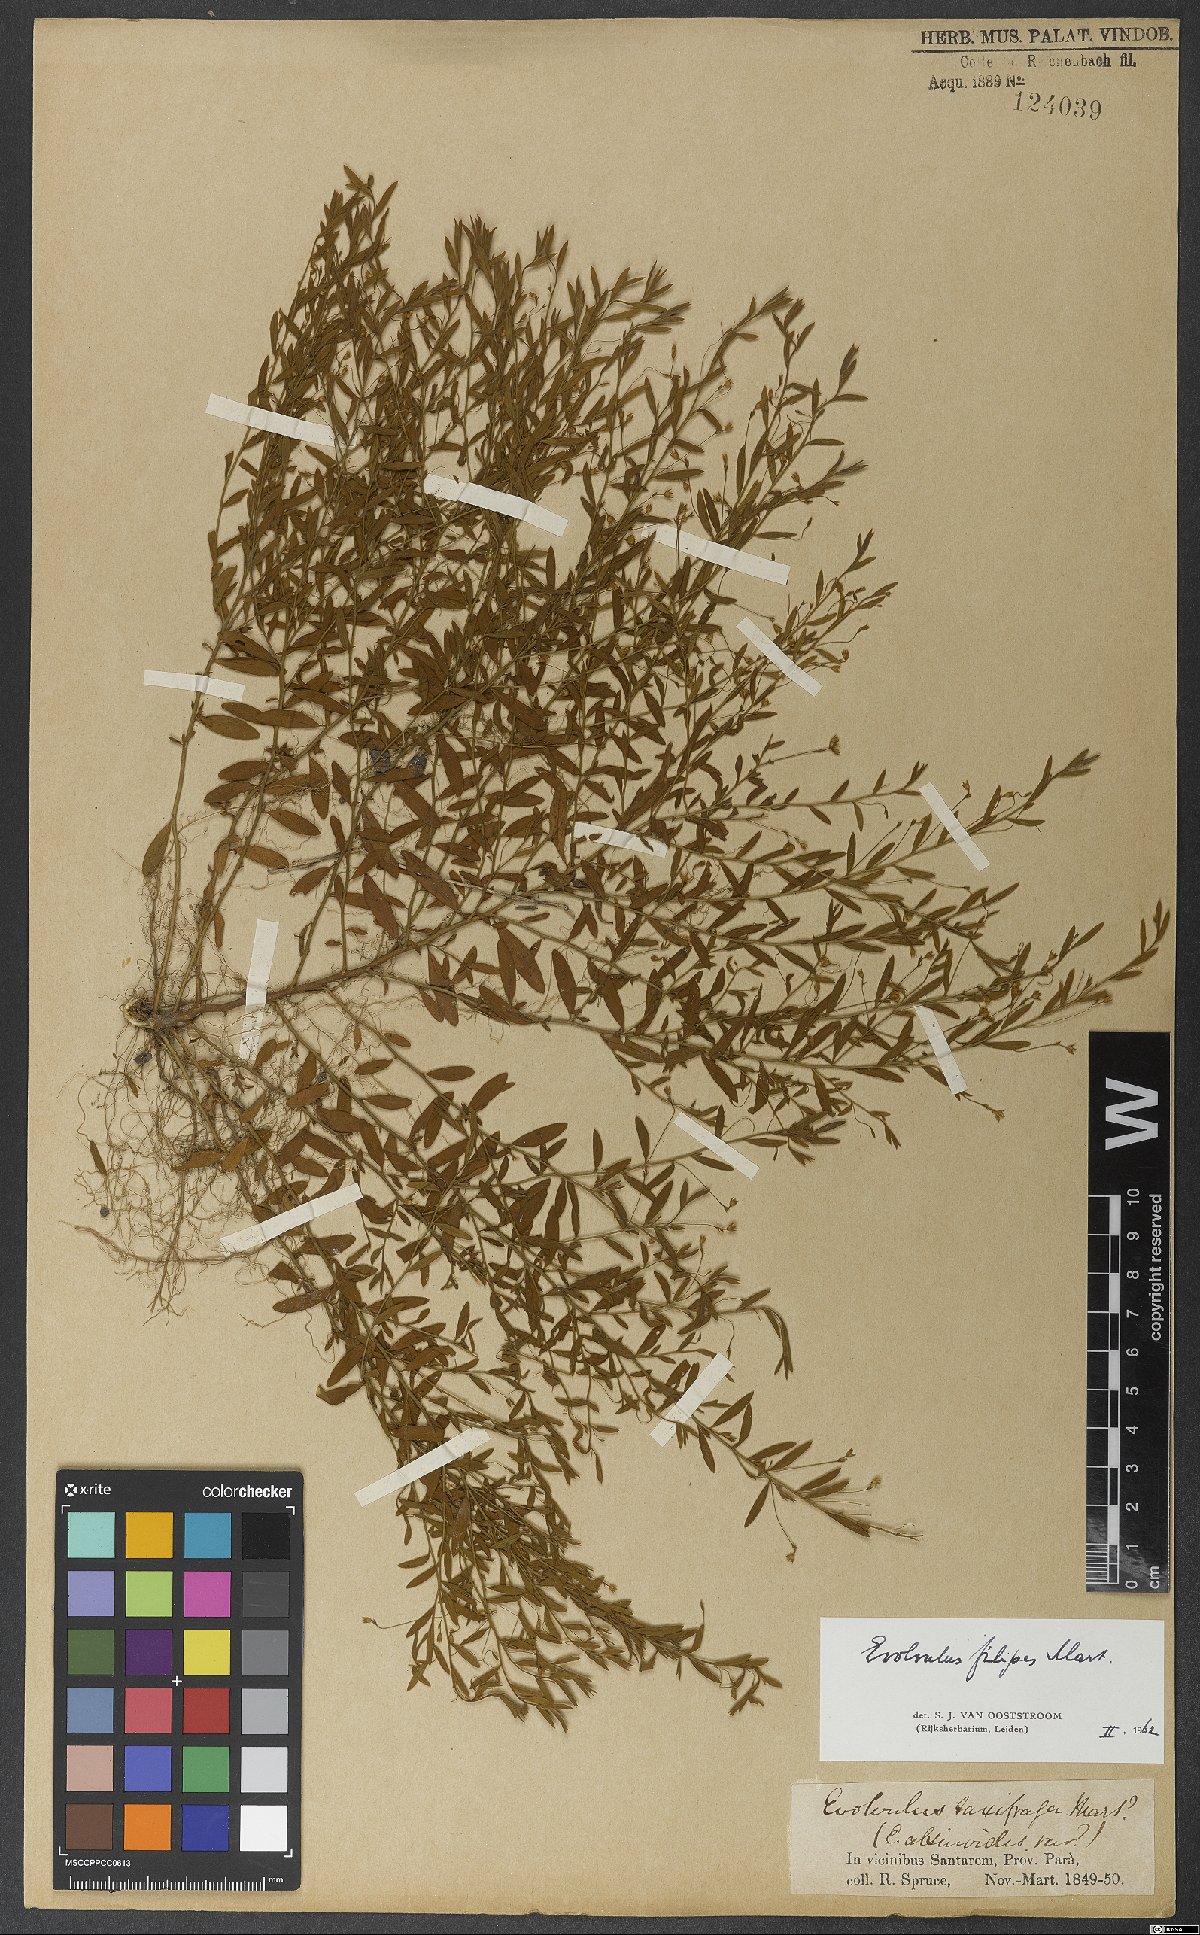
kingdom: Plantae
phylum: Tracheophyta
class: Magnoliopsida
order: Solanales
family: Convolvulaceae
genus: Evolvulus
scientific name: Evolvulus filipes
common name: Maryland dwarf morning-glory
